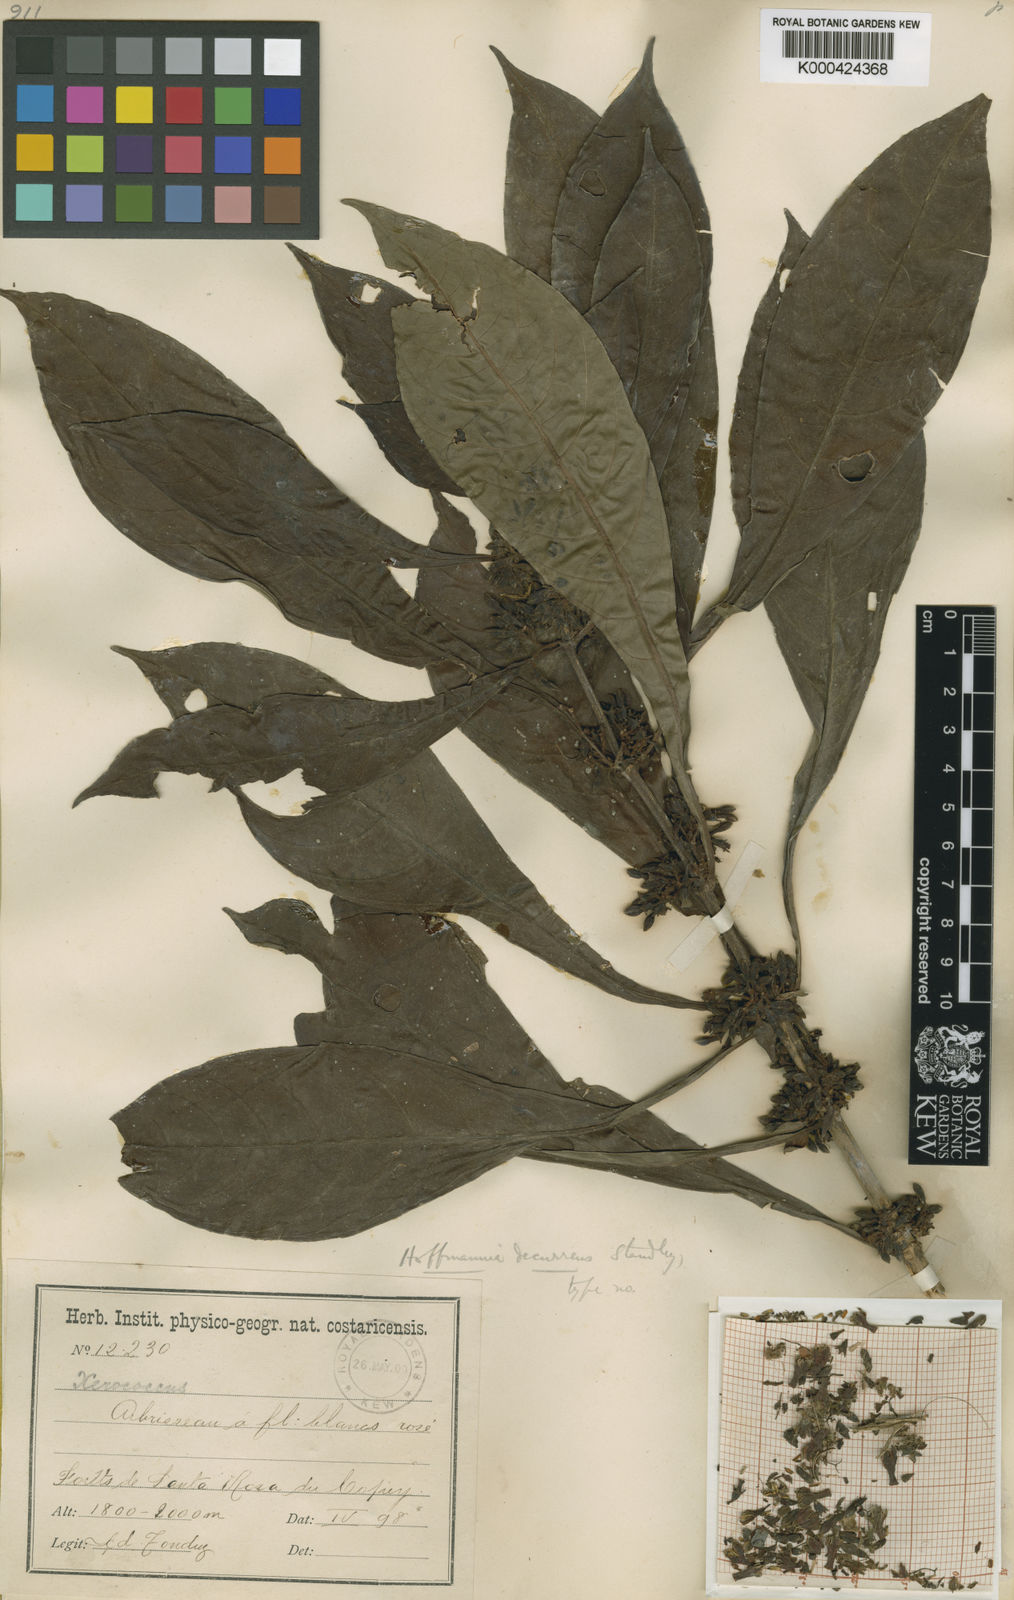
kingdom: Plantae
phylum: Tracheophyta
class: Magnoliopsida
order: Gentianales
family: Rubiaceae
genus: Hoffmannia
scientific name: Hoffmannia arborescens
